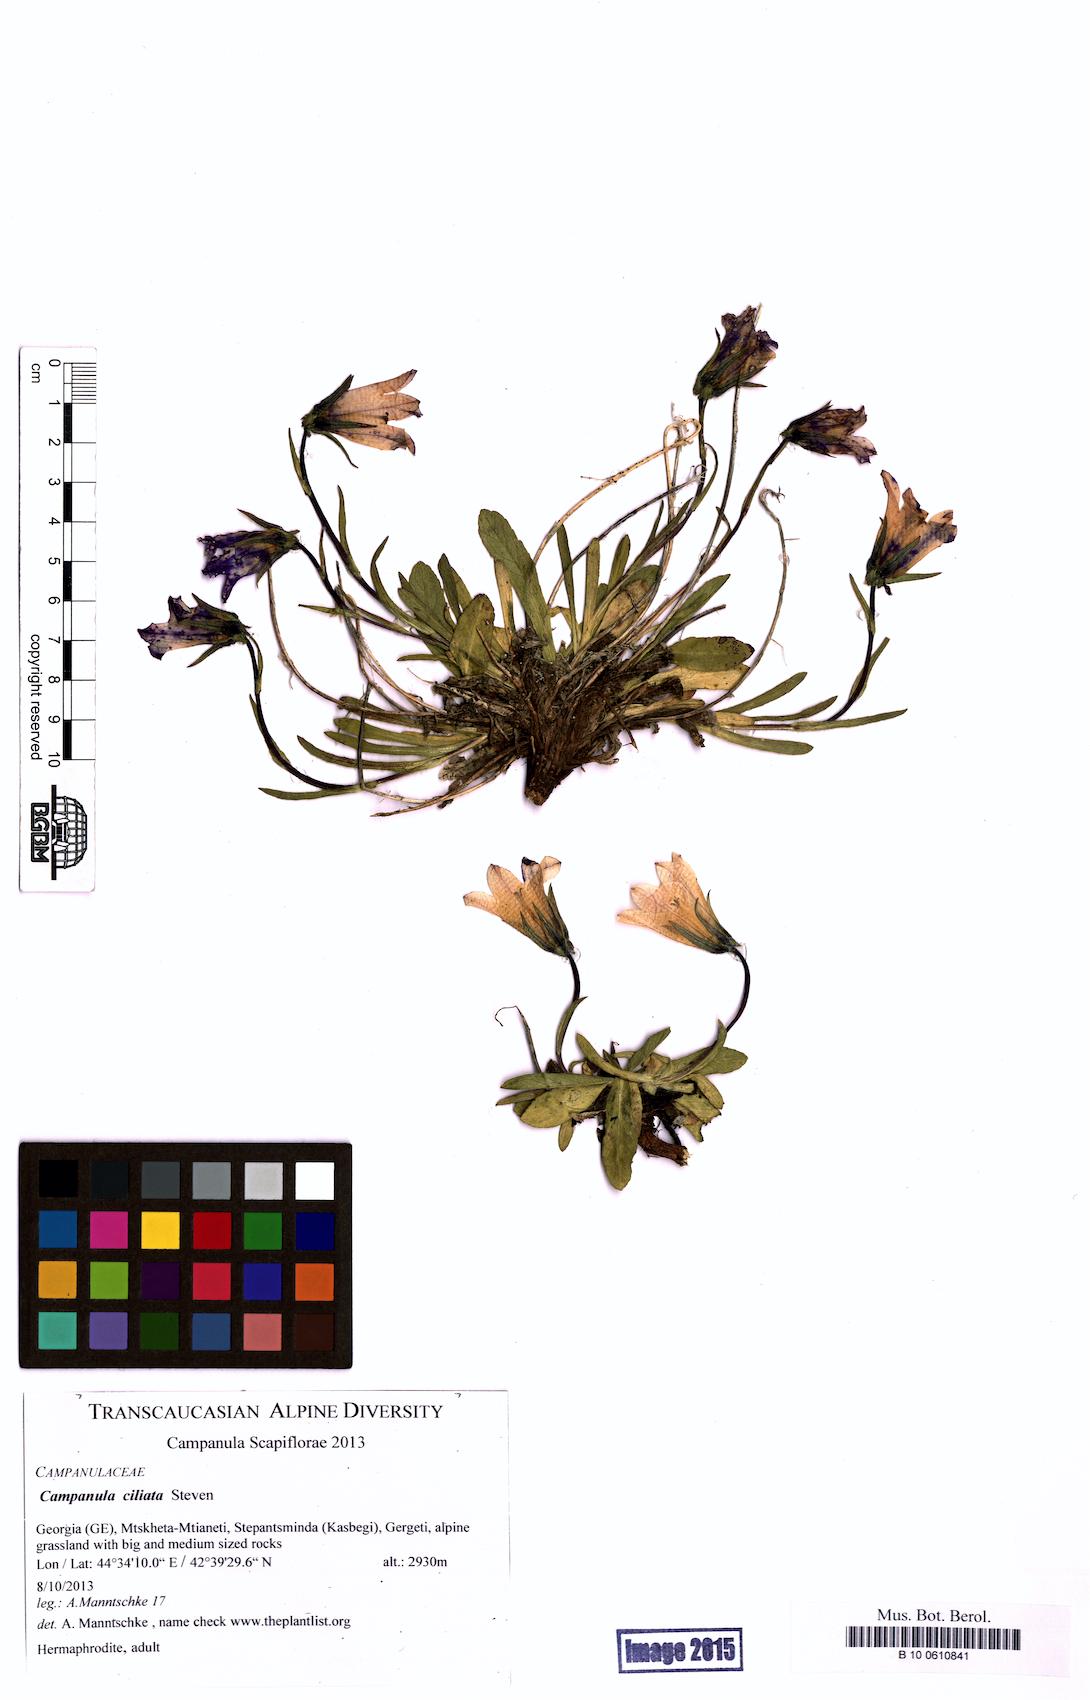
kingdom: Plantae
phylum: Tracheophyta
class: Magnoliopsida
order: Asterales
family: Campanulaceae
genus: Campanula
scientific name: Campanula ciliata
